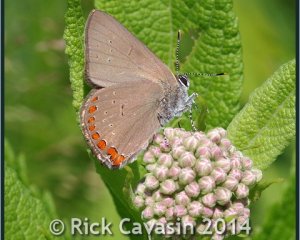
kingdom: Animalia
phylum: Arthropoda
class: Insecta
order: Lepidoptera
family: Lycaenidae
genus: Harkenclenus
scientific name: Harkenclenus titus
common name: Coral Hairstreak
